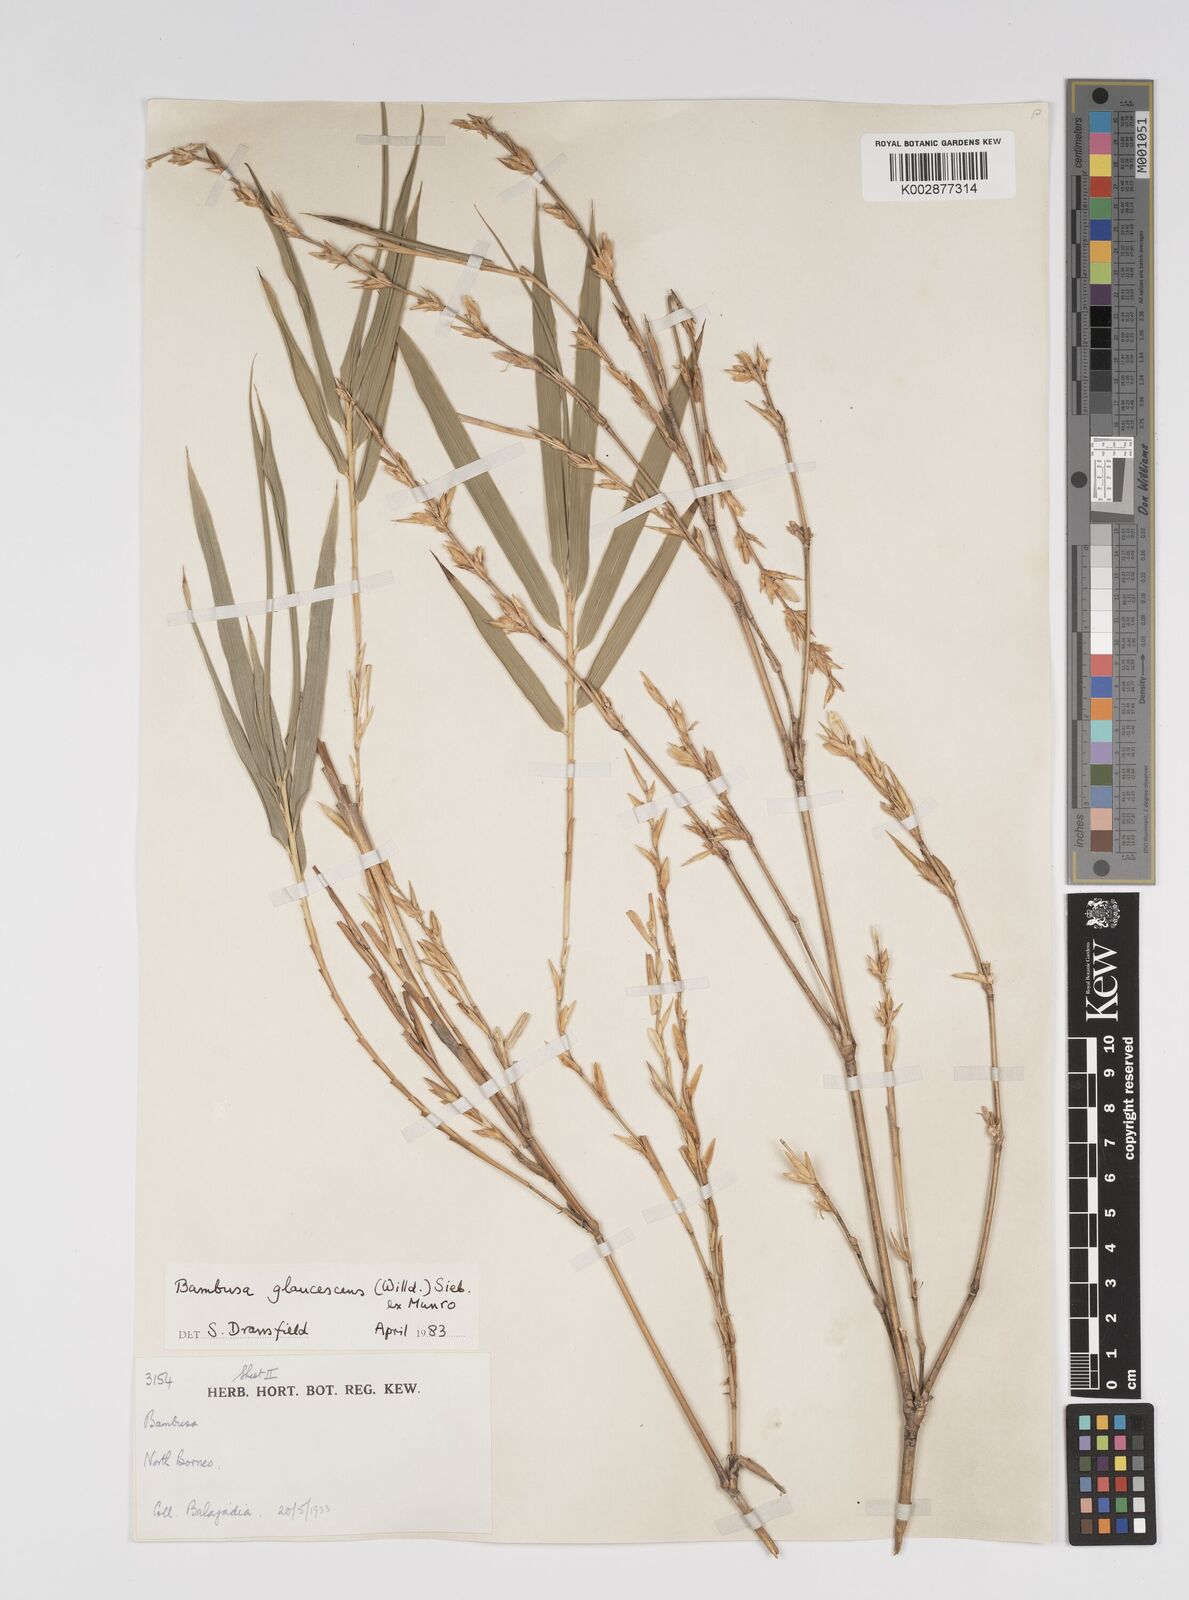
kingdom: Plantae
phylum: Tracheophyta
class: Liliopsida
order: Poales
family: Poaceae
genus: Bambusa
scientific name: Bambusa multiplex
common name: Hedge bamboo
